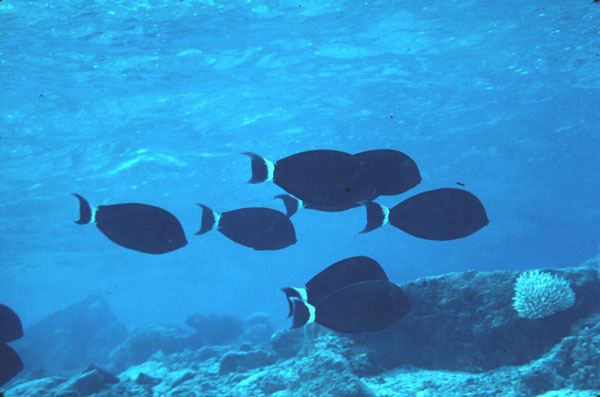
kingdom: Animalia
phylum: Chordata
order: Perciformes
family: Acanthuridae
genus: Acanthurus
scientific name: Acanthurus blochii
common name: Blue-banded pualu
